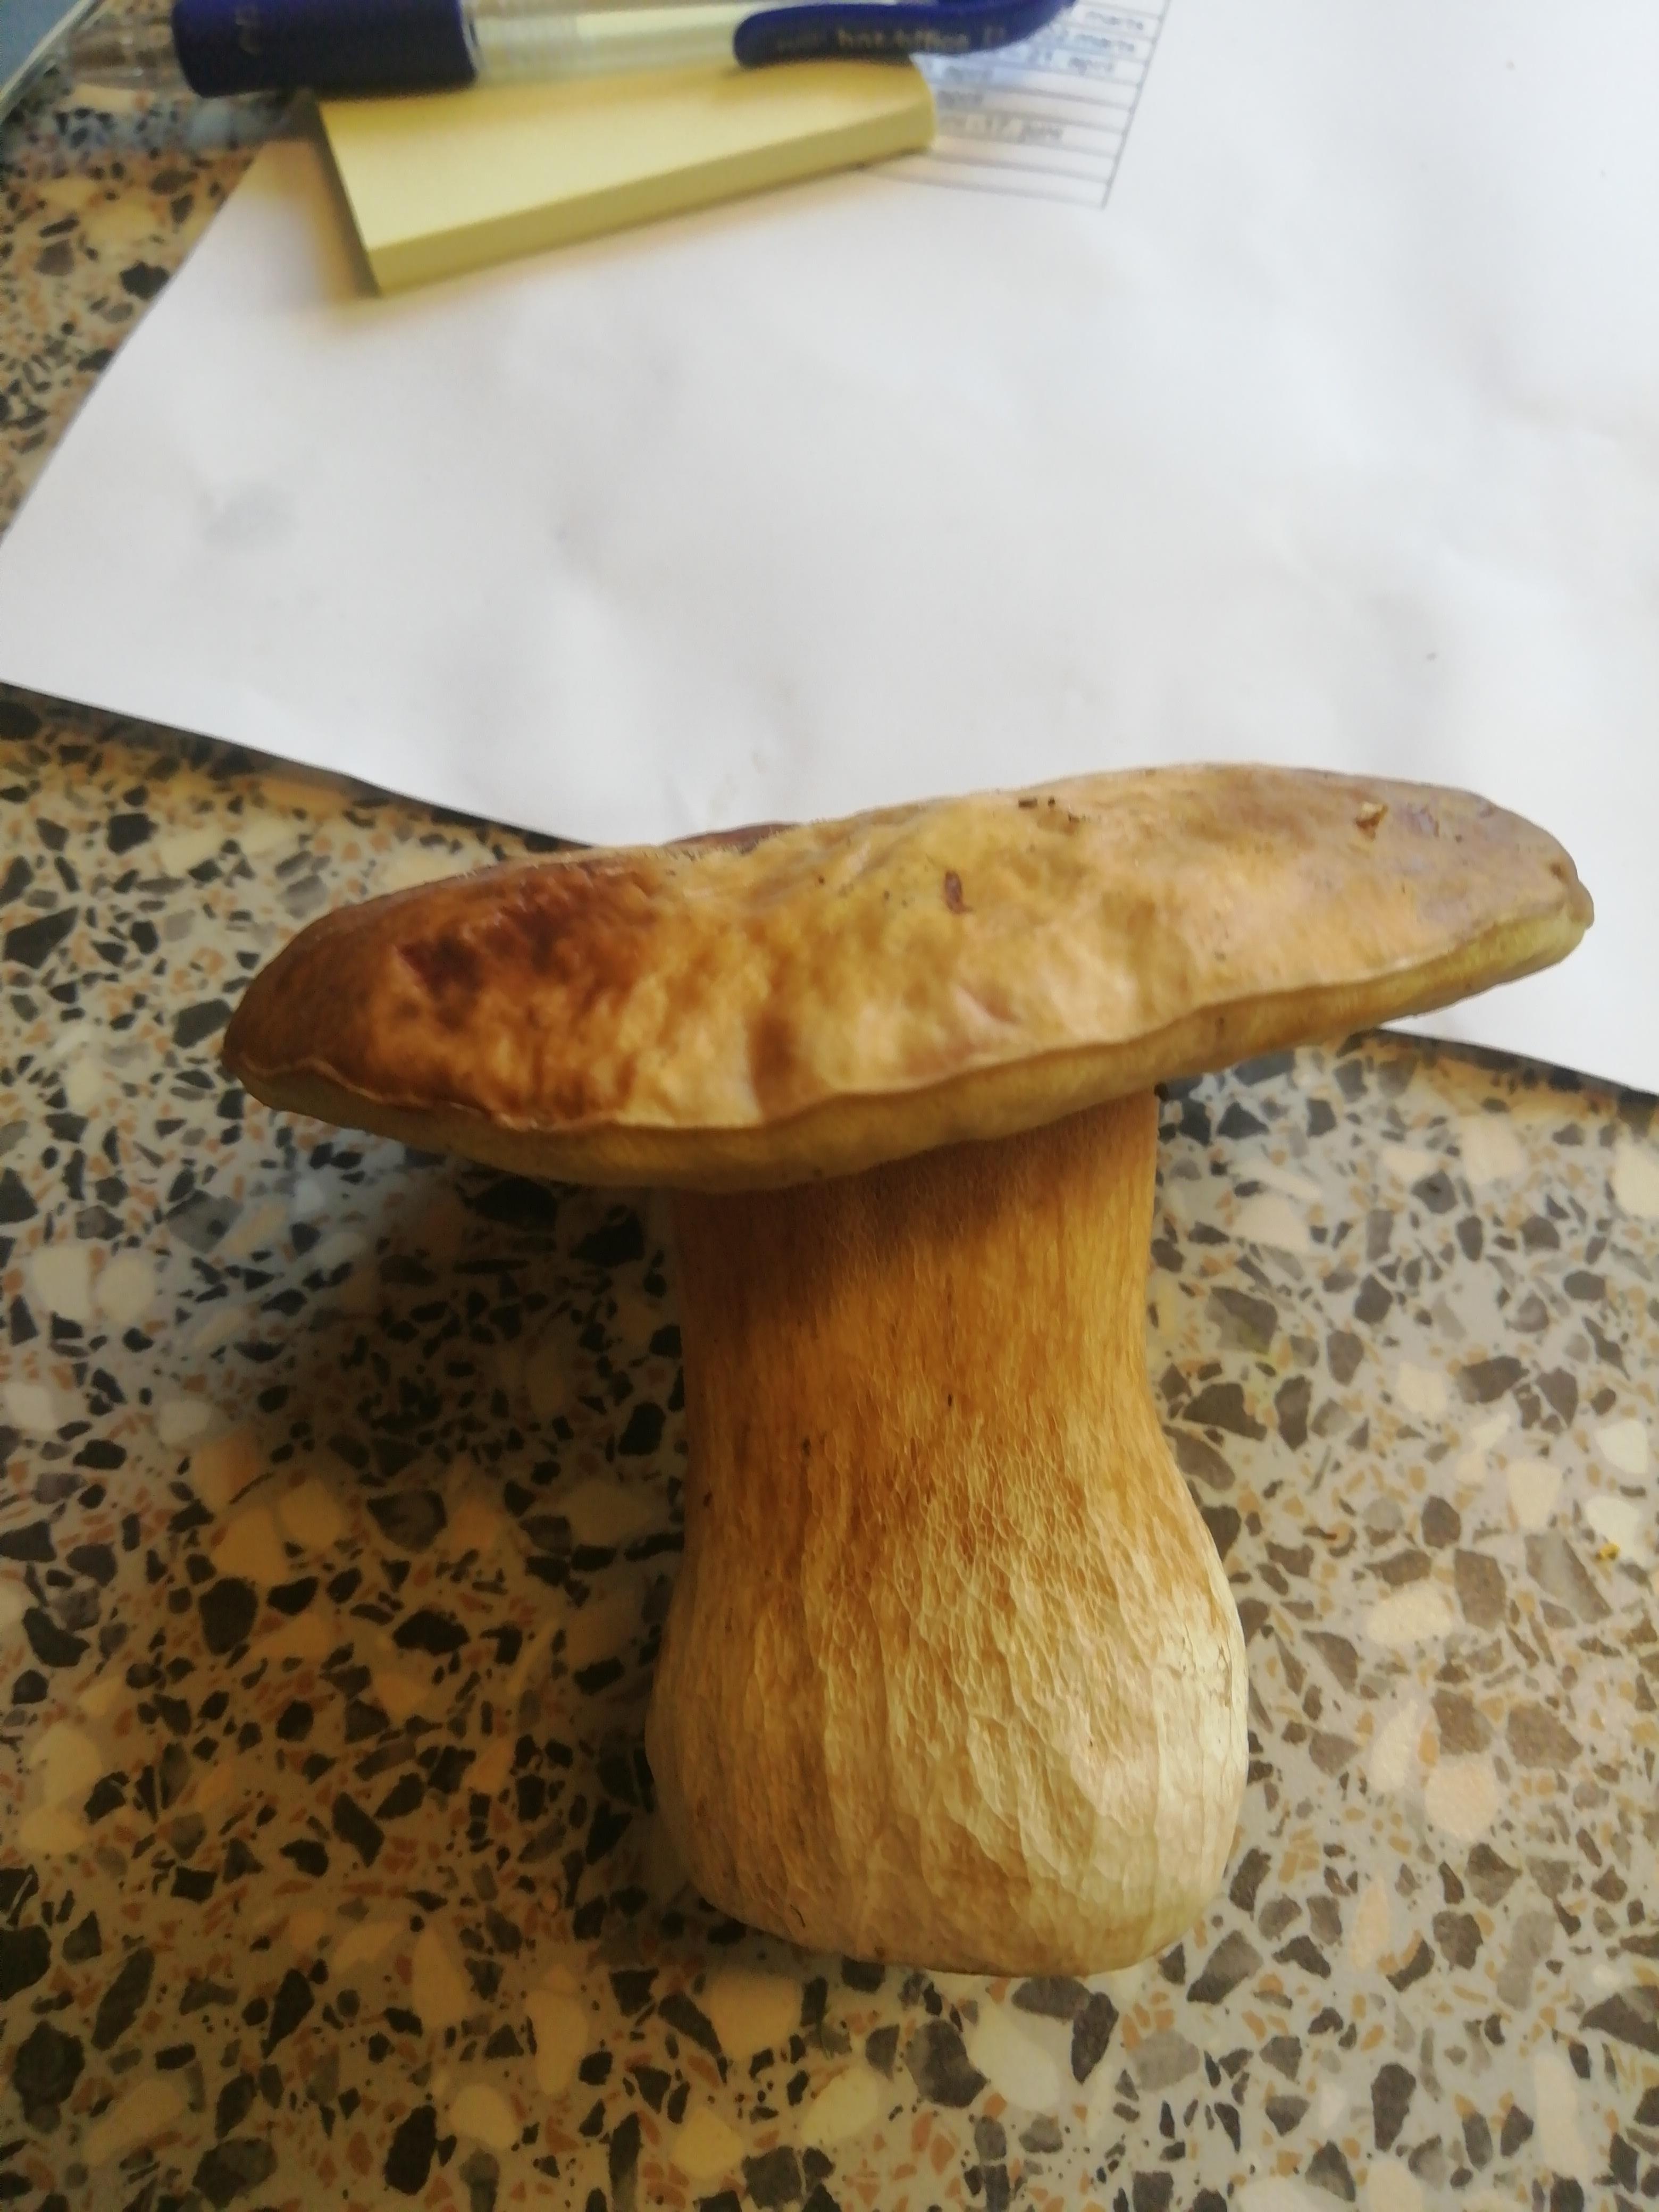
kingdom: Fungi
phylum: Basidiomycota
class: Agaricomycetes
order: Boletales
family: Boletaceae
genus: Boletus
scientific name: Boletus edulis
